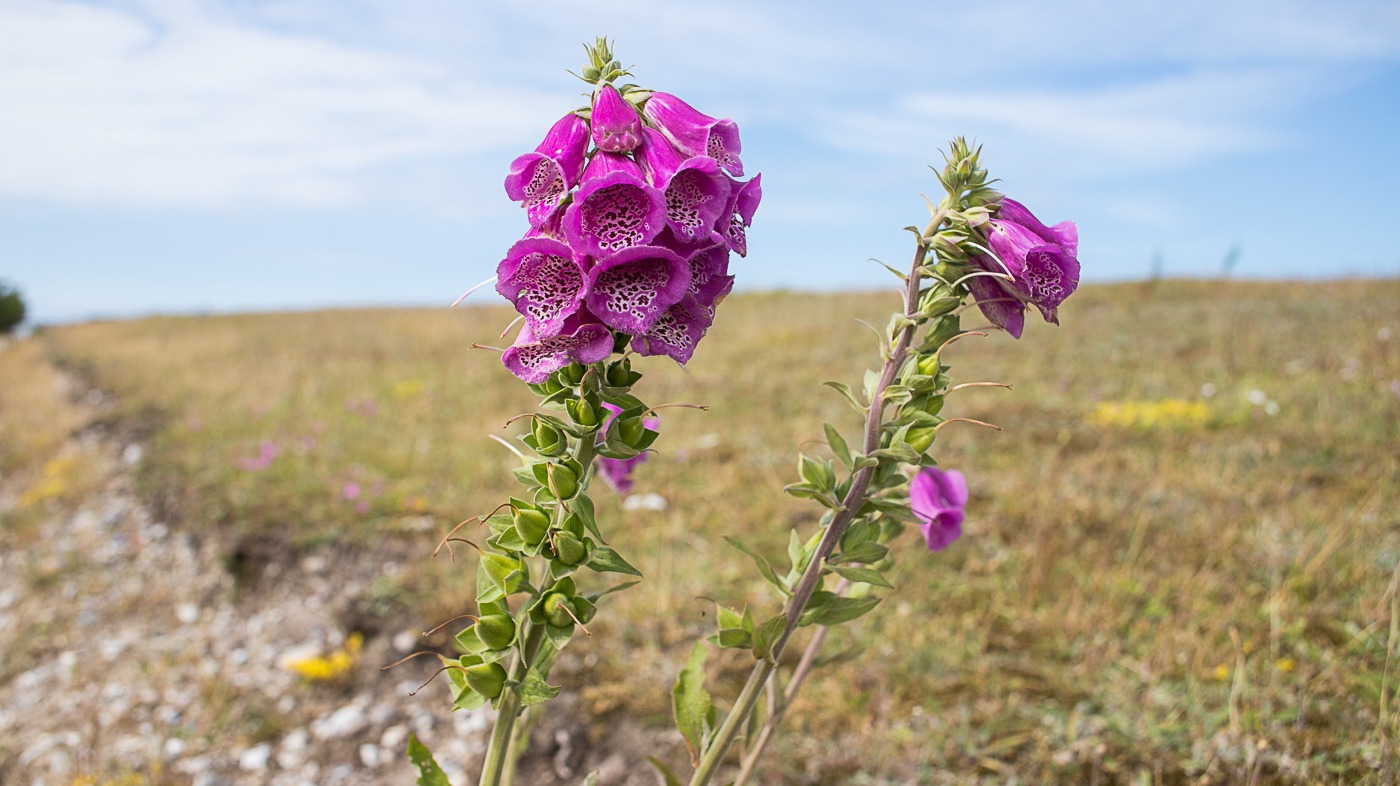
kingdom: Plantae
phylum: Tracheophyta
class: Magnoliopsida
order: Lamiales
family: Plantaginaceae
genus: Digitalis
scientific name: Digitalis purpurea
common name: Almindelig fingerbøl
